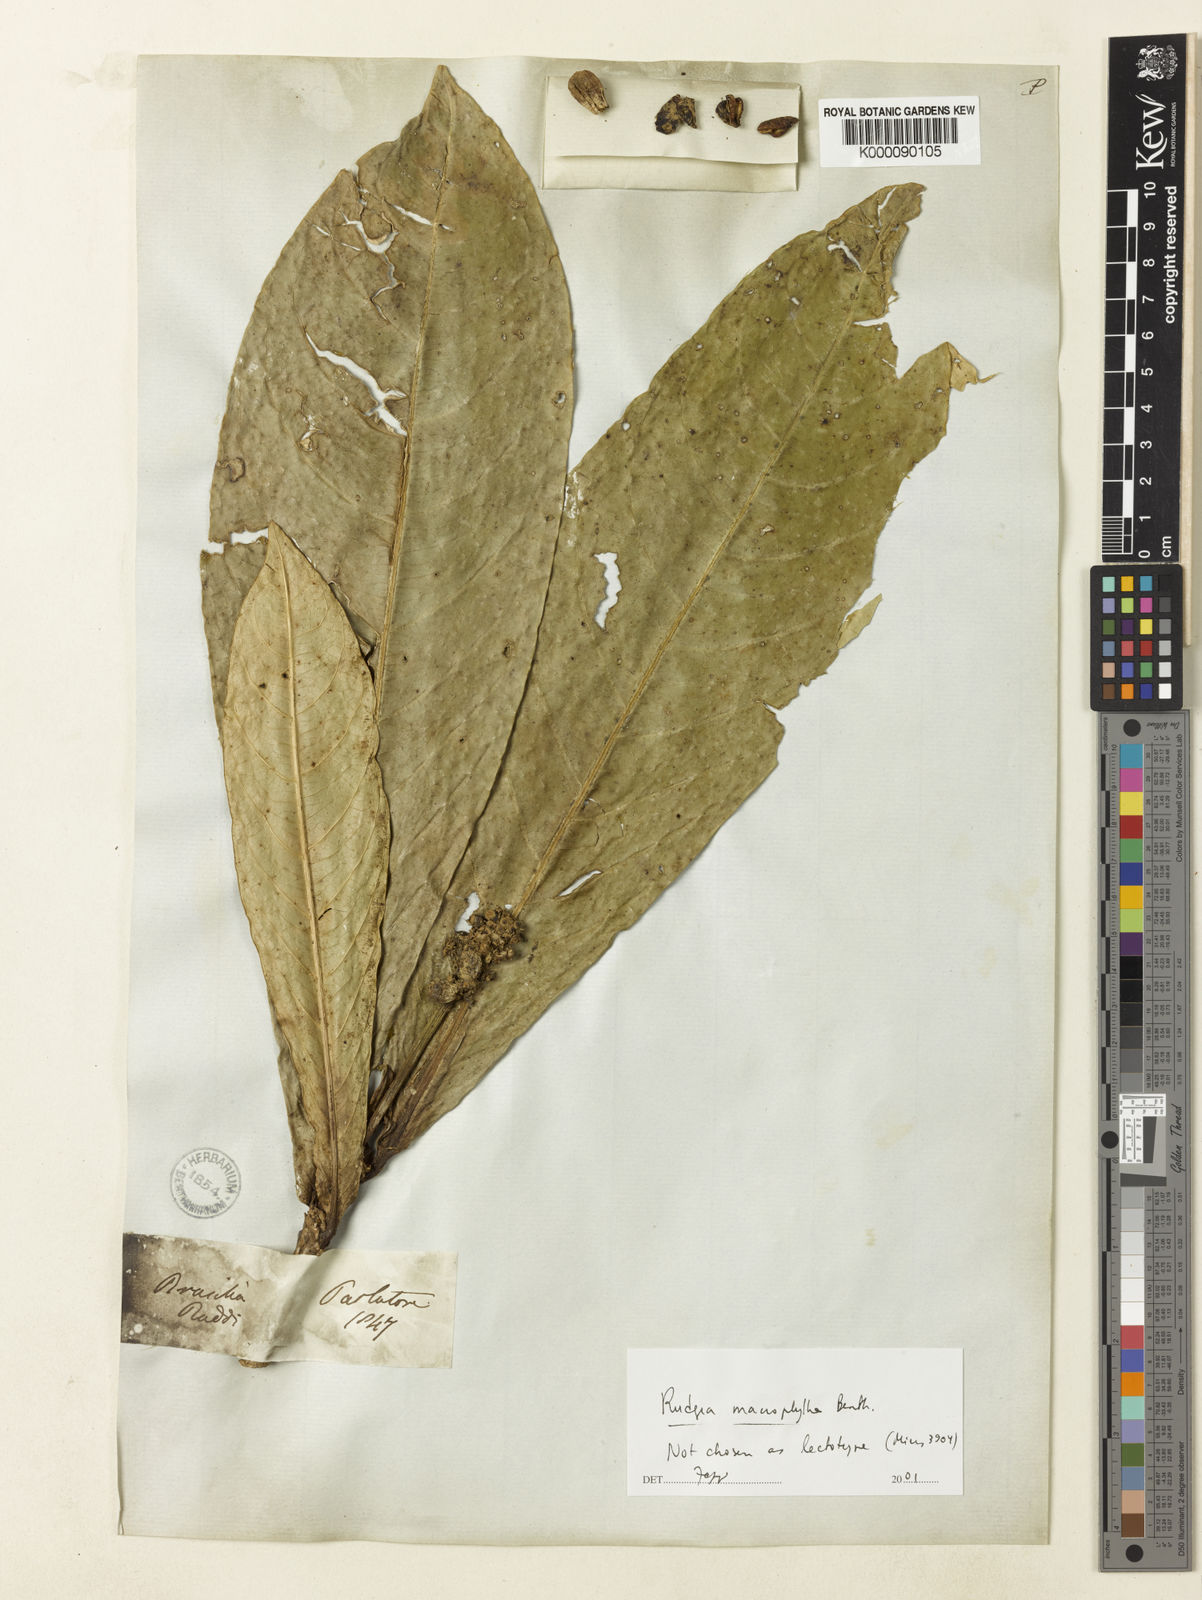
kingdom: Plantae
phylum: Tracheophyta
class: Magnoliopsida
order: Gentianales
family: Rubiaceae
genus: Rudgea
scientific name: Rudgea macrophylla
